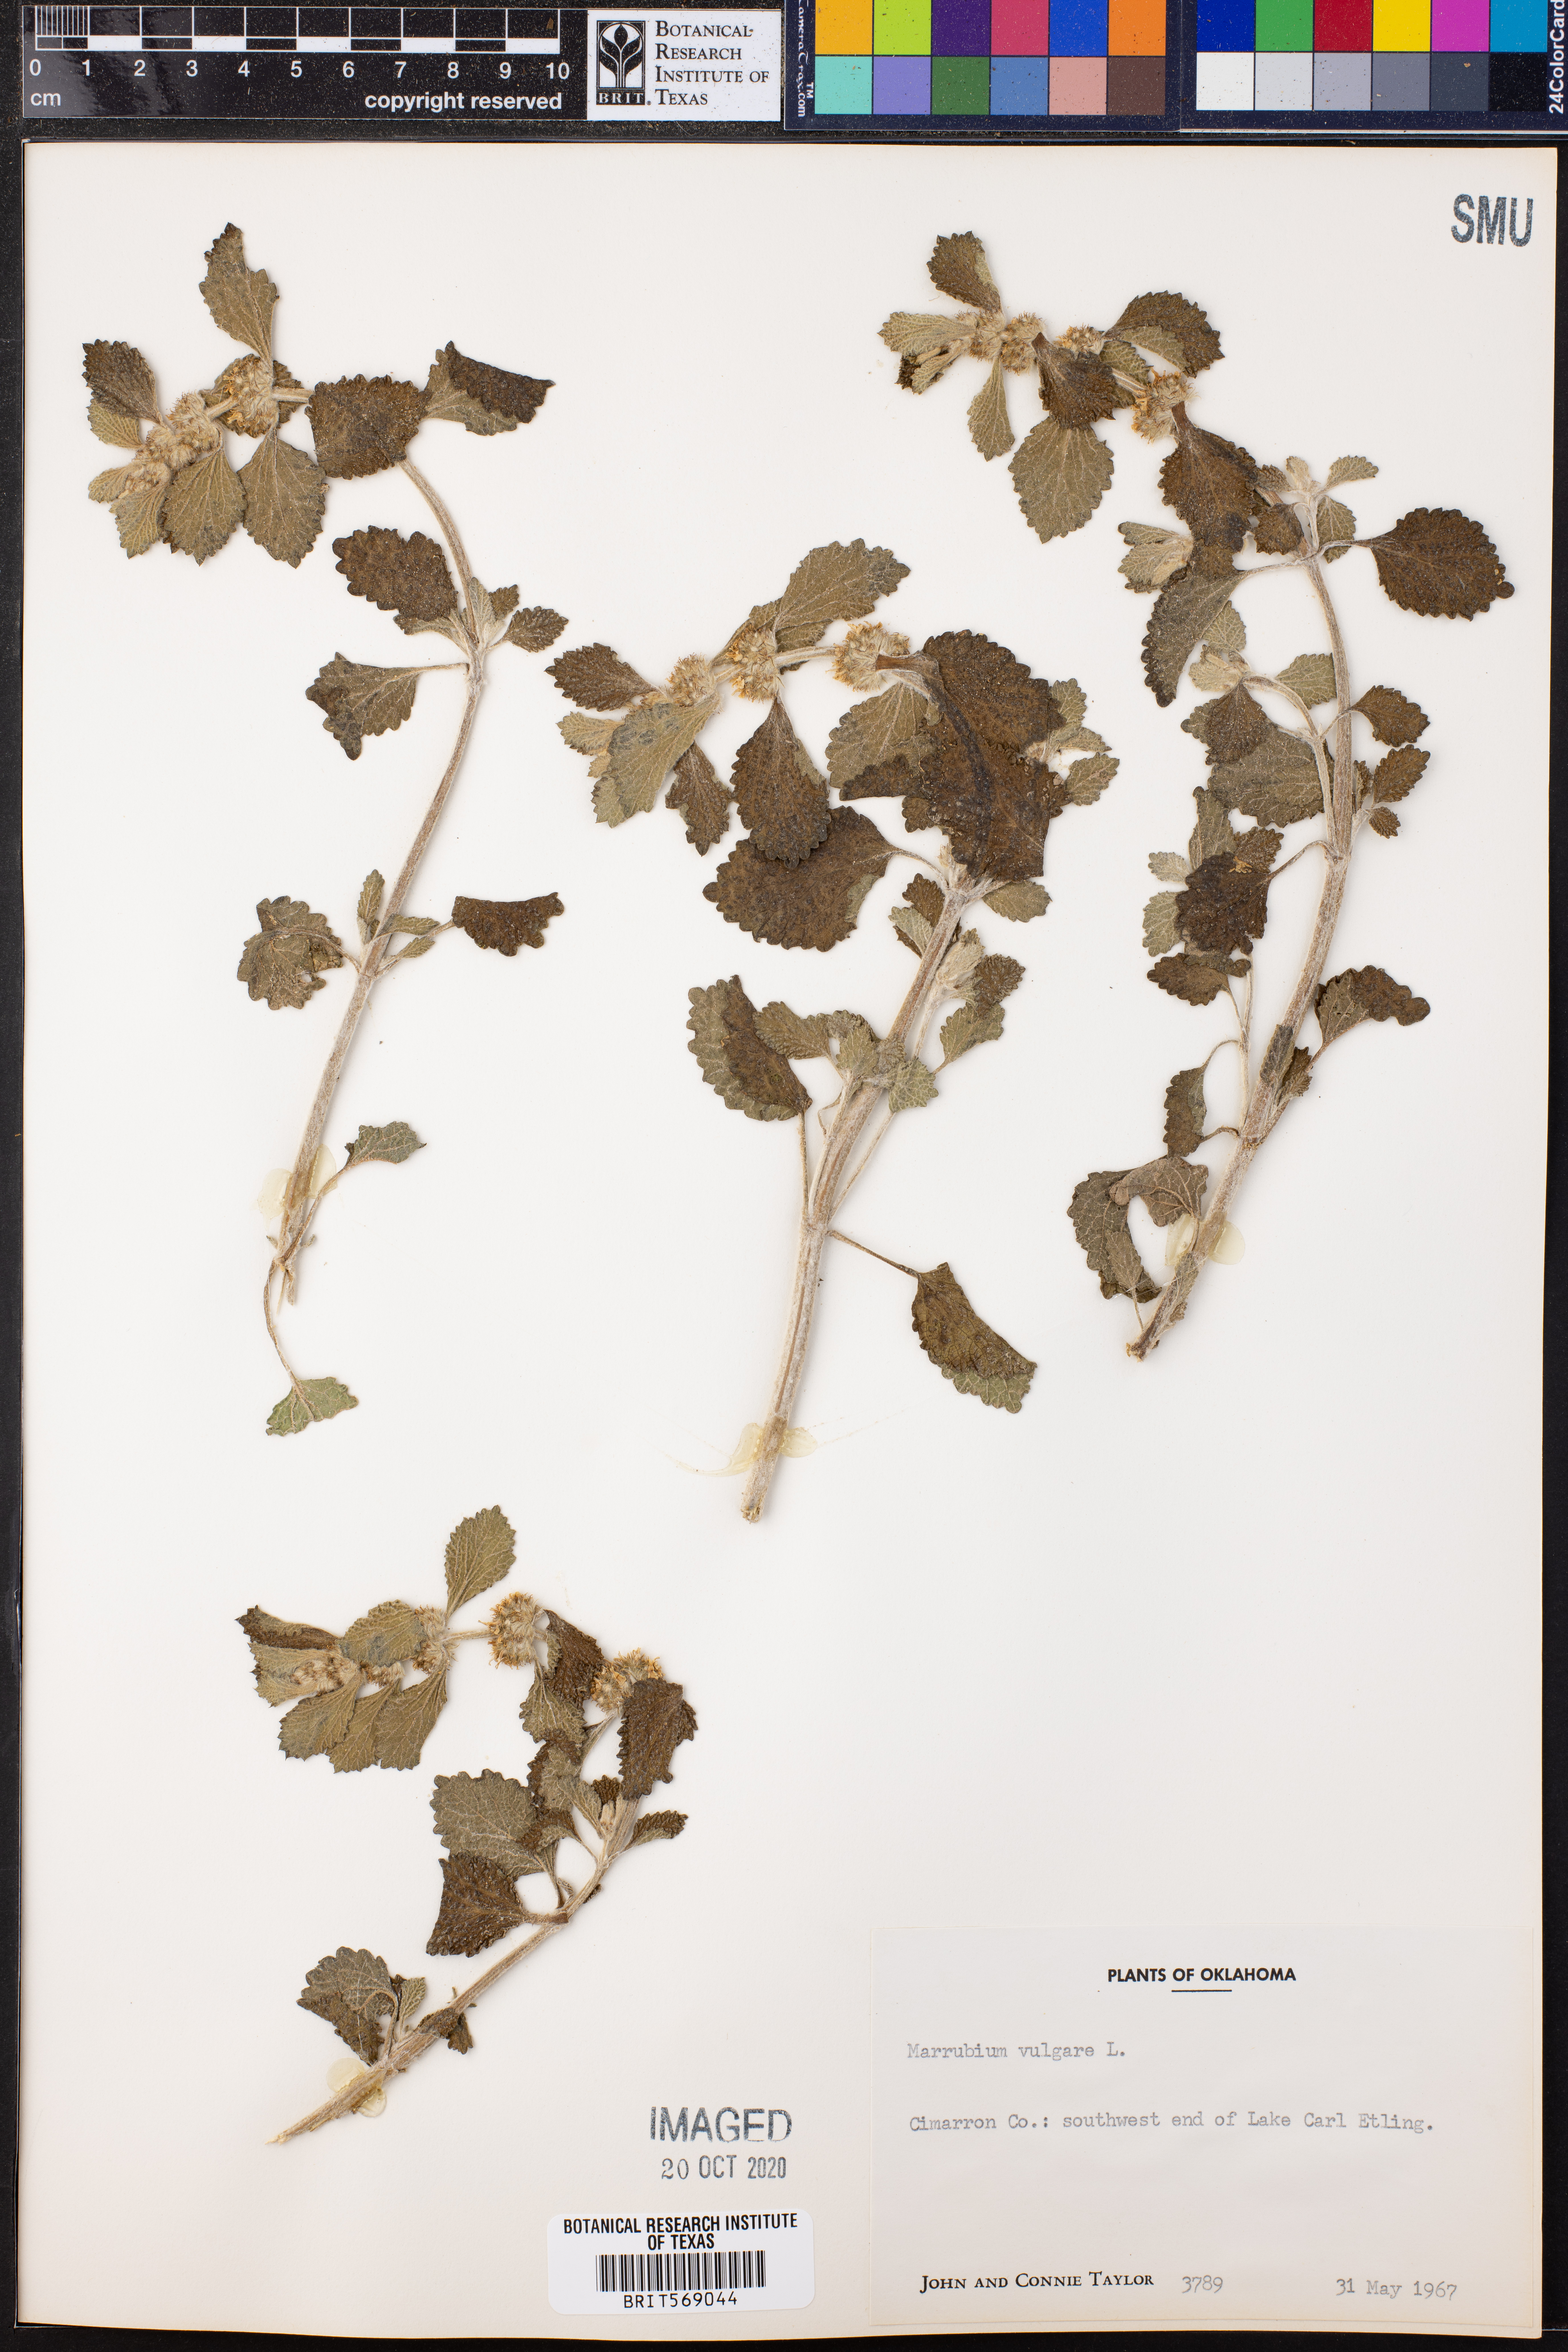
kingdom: Plantae
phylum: Tracheophyta
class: Magnoliopsida
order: Lamiales
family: Lamiaceae
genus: Marrubium
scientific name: Marrubium vulgare
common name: Horehound
